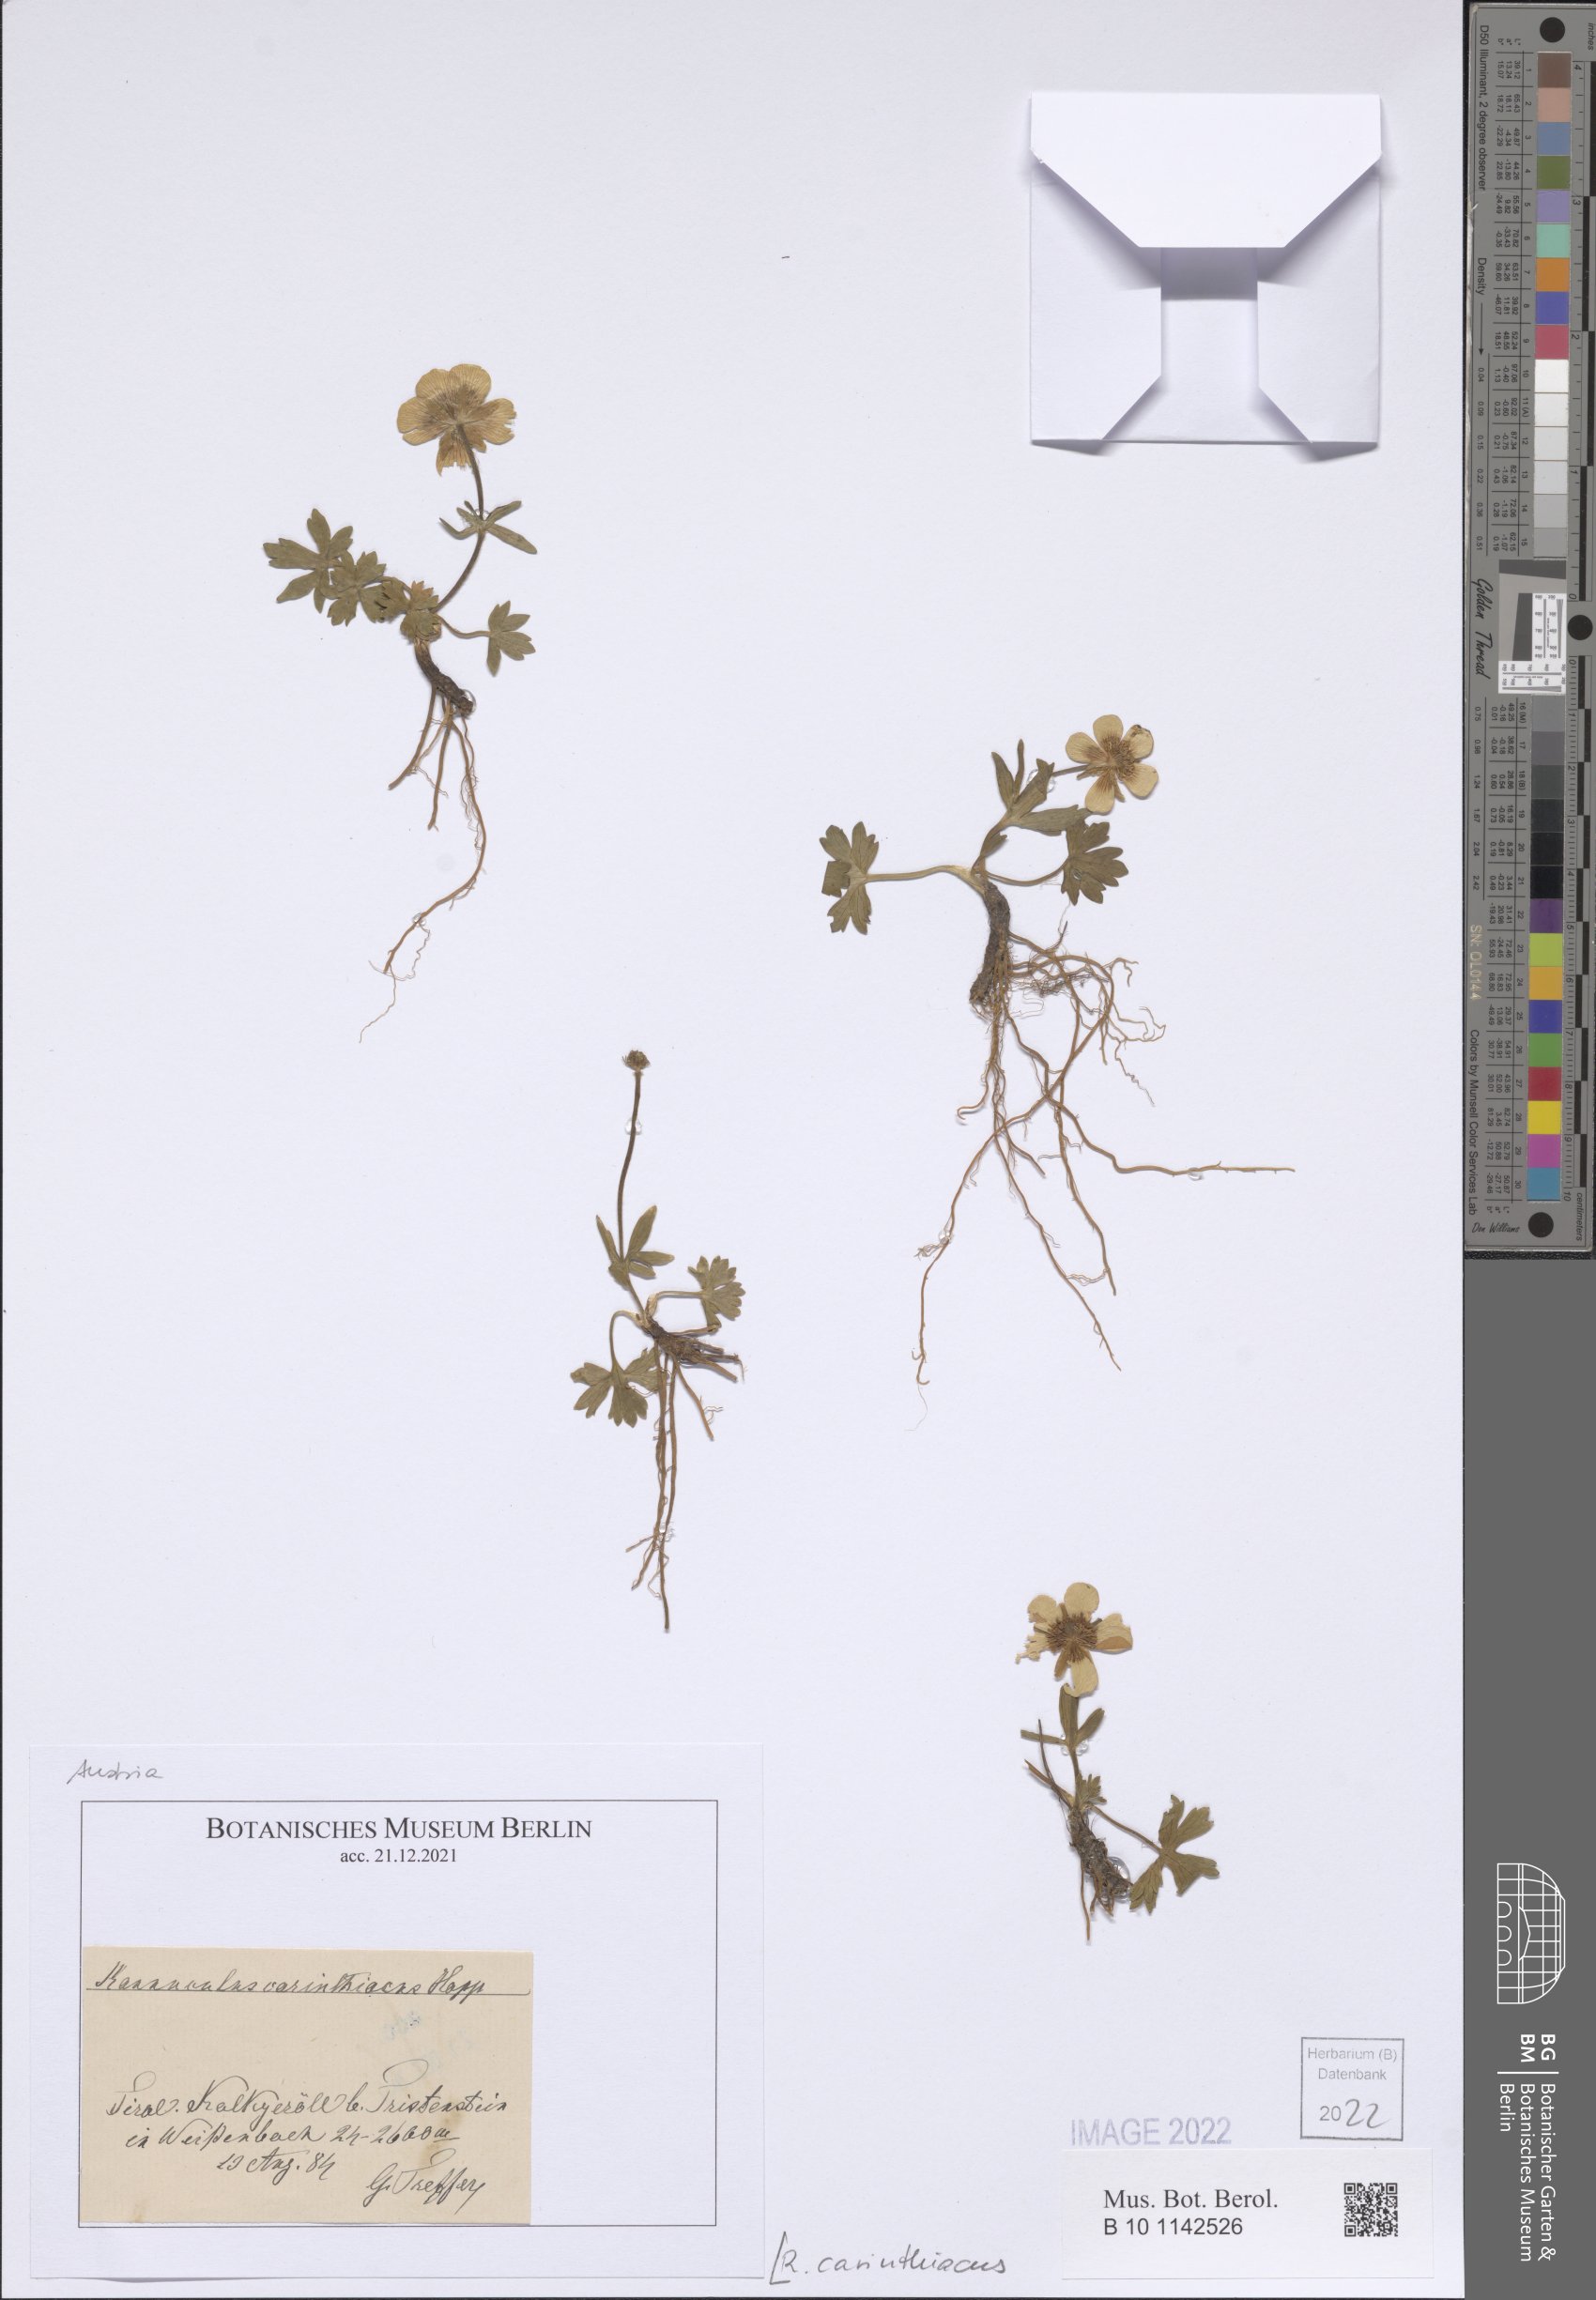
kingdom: Plantae
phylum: Tracheophyta
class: Magnoliopsida
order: Ranunculales
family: Ranunculaceae
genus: Ranunculus
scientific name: Ranunculus carinthiacus
